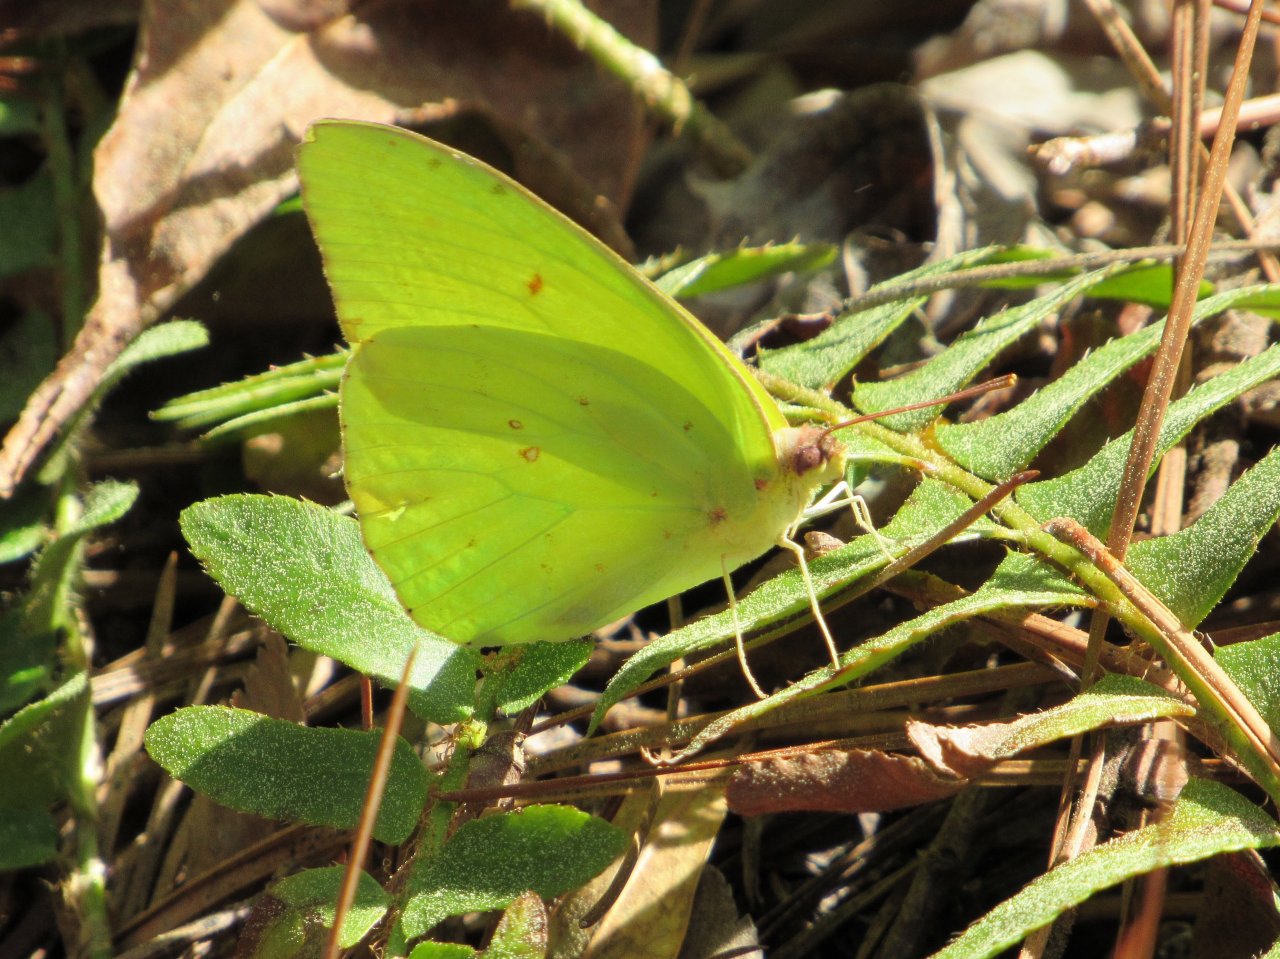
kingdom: Animalia
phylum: Arthropoda
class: Insecta
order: Lepidoptera
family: Pieridae
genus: Phoebis
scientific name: Phoebis sennae
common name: Cloudless Sulphur
